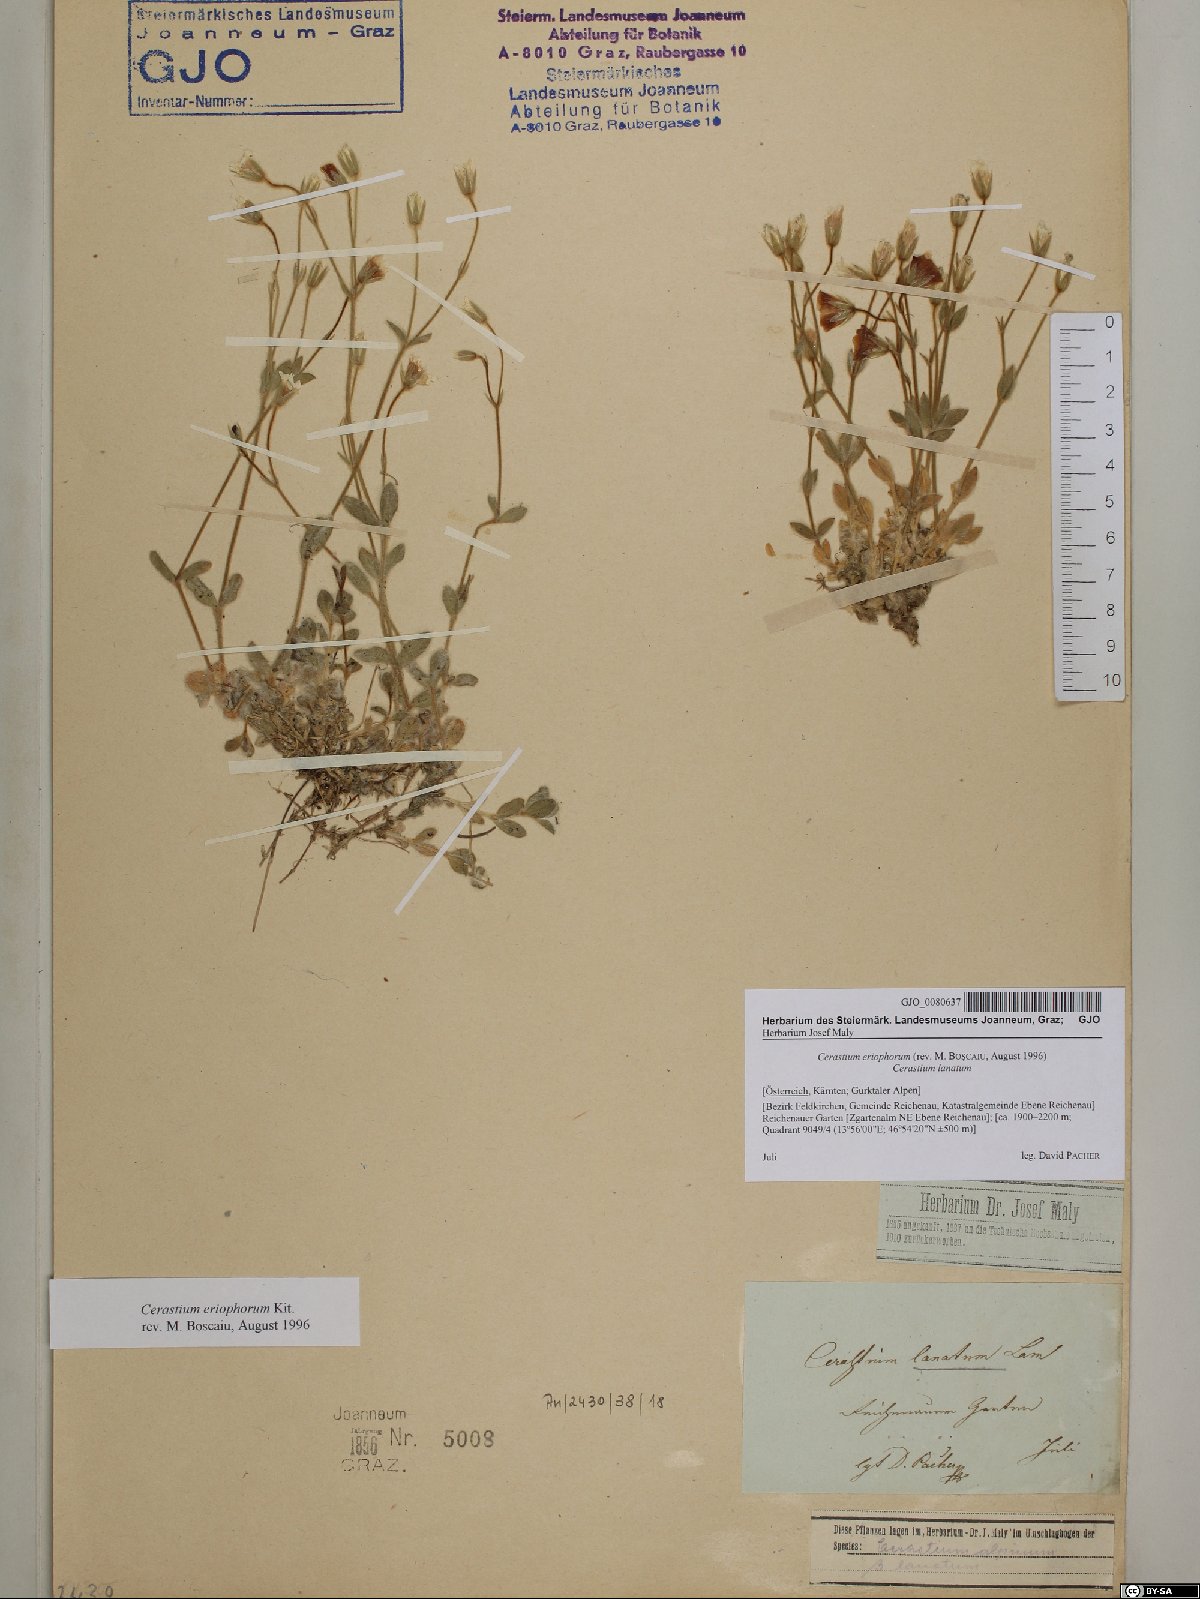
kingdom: Plantae
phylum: Tracheophyta
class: Magnoliopsida
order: Caryophyllales
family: Caryophyllaceae
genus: Cerastium
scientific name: Cerastium eriophorum
